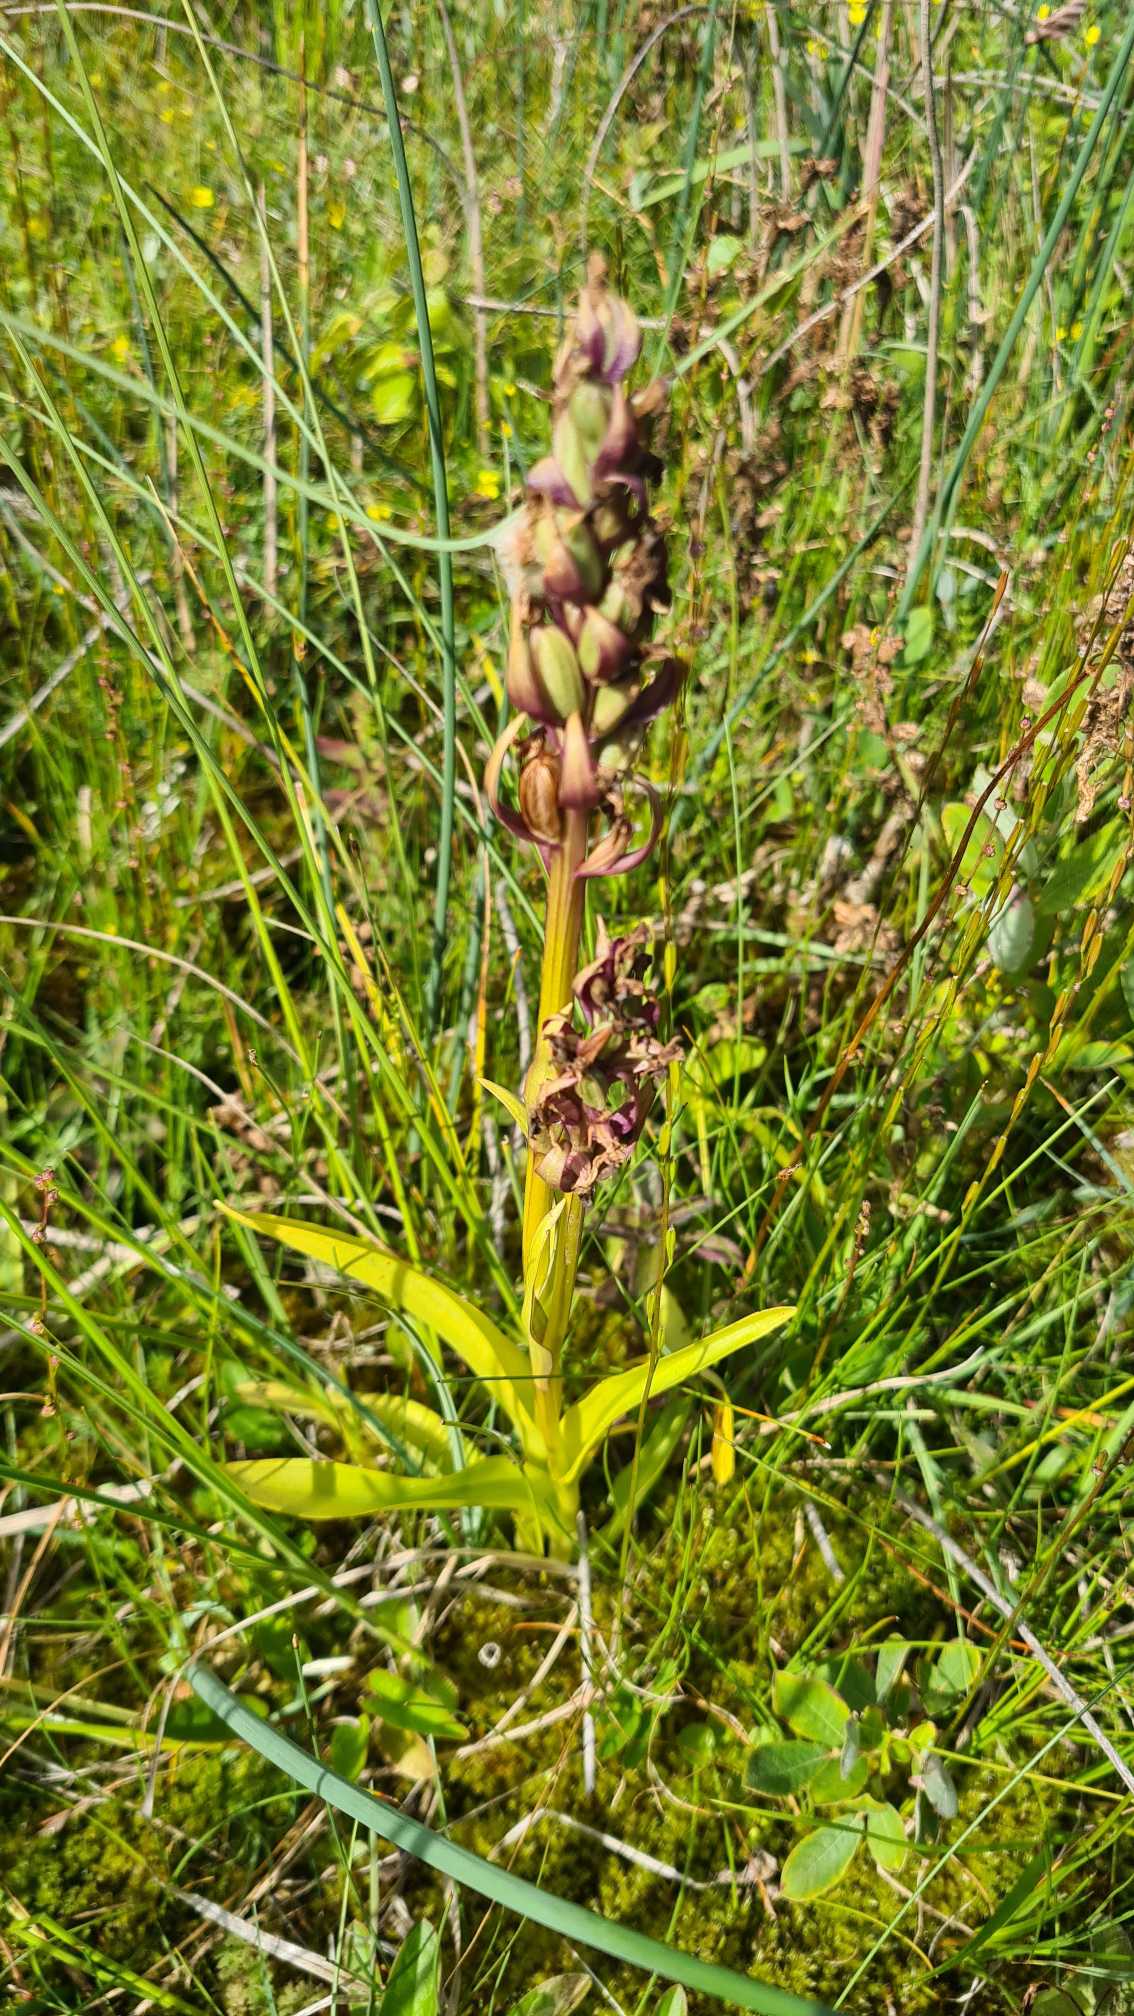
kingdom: Plantae
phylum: Tracheophyta
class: Liliopsida
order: Asparagales
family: Orchidaceae
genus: Dactylorhiza
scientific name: Dactylorhiza majalis
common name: Maj-gøgeurt
